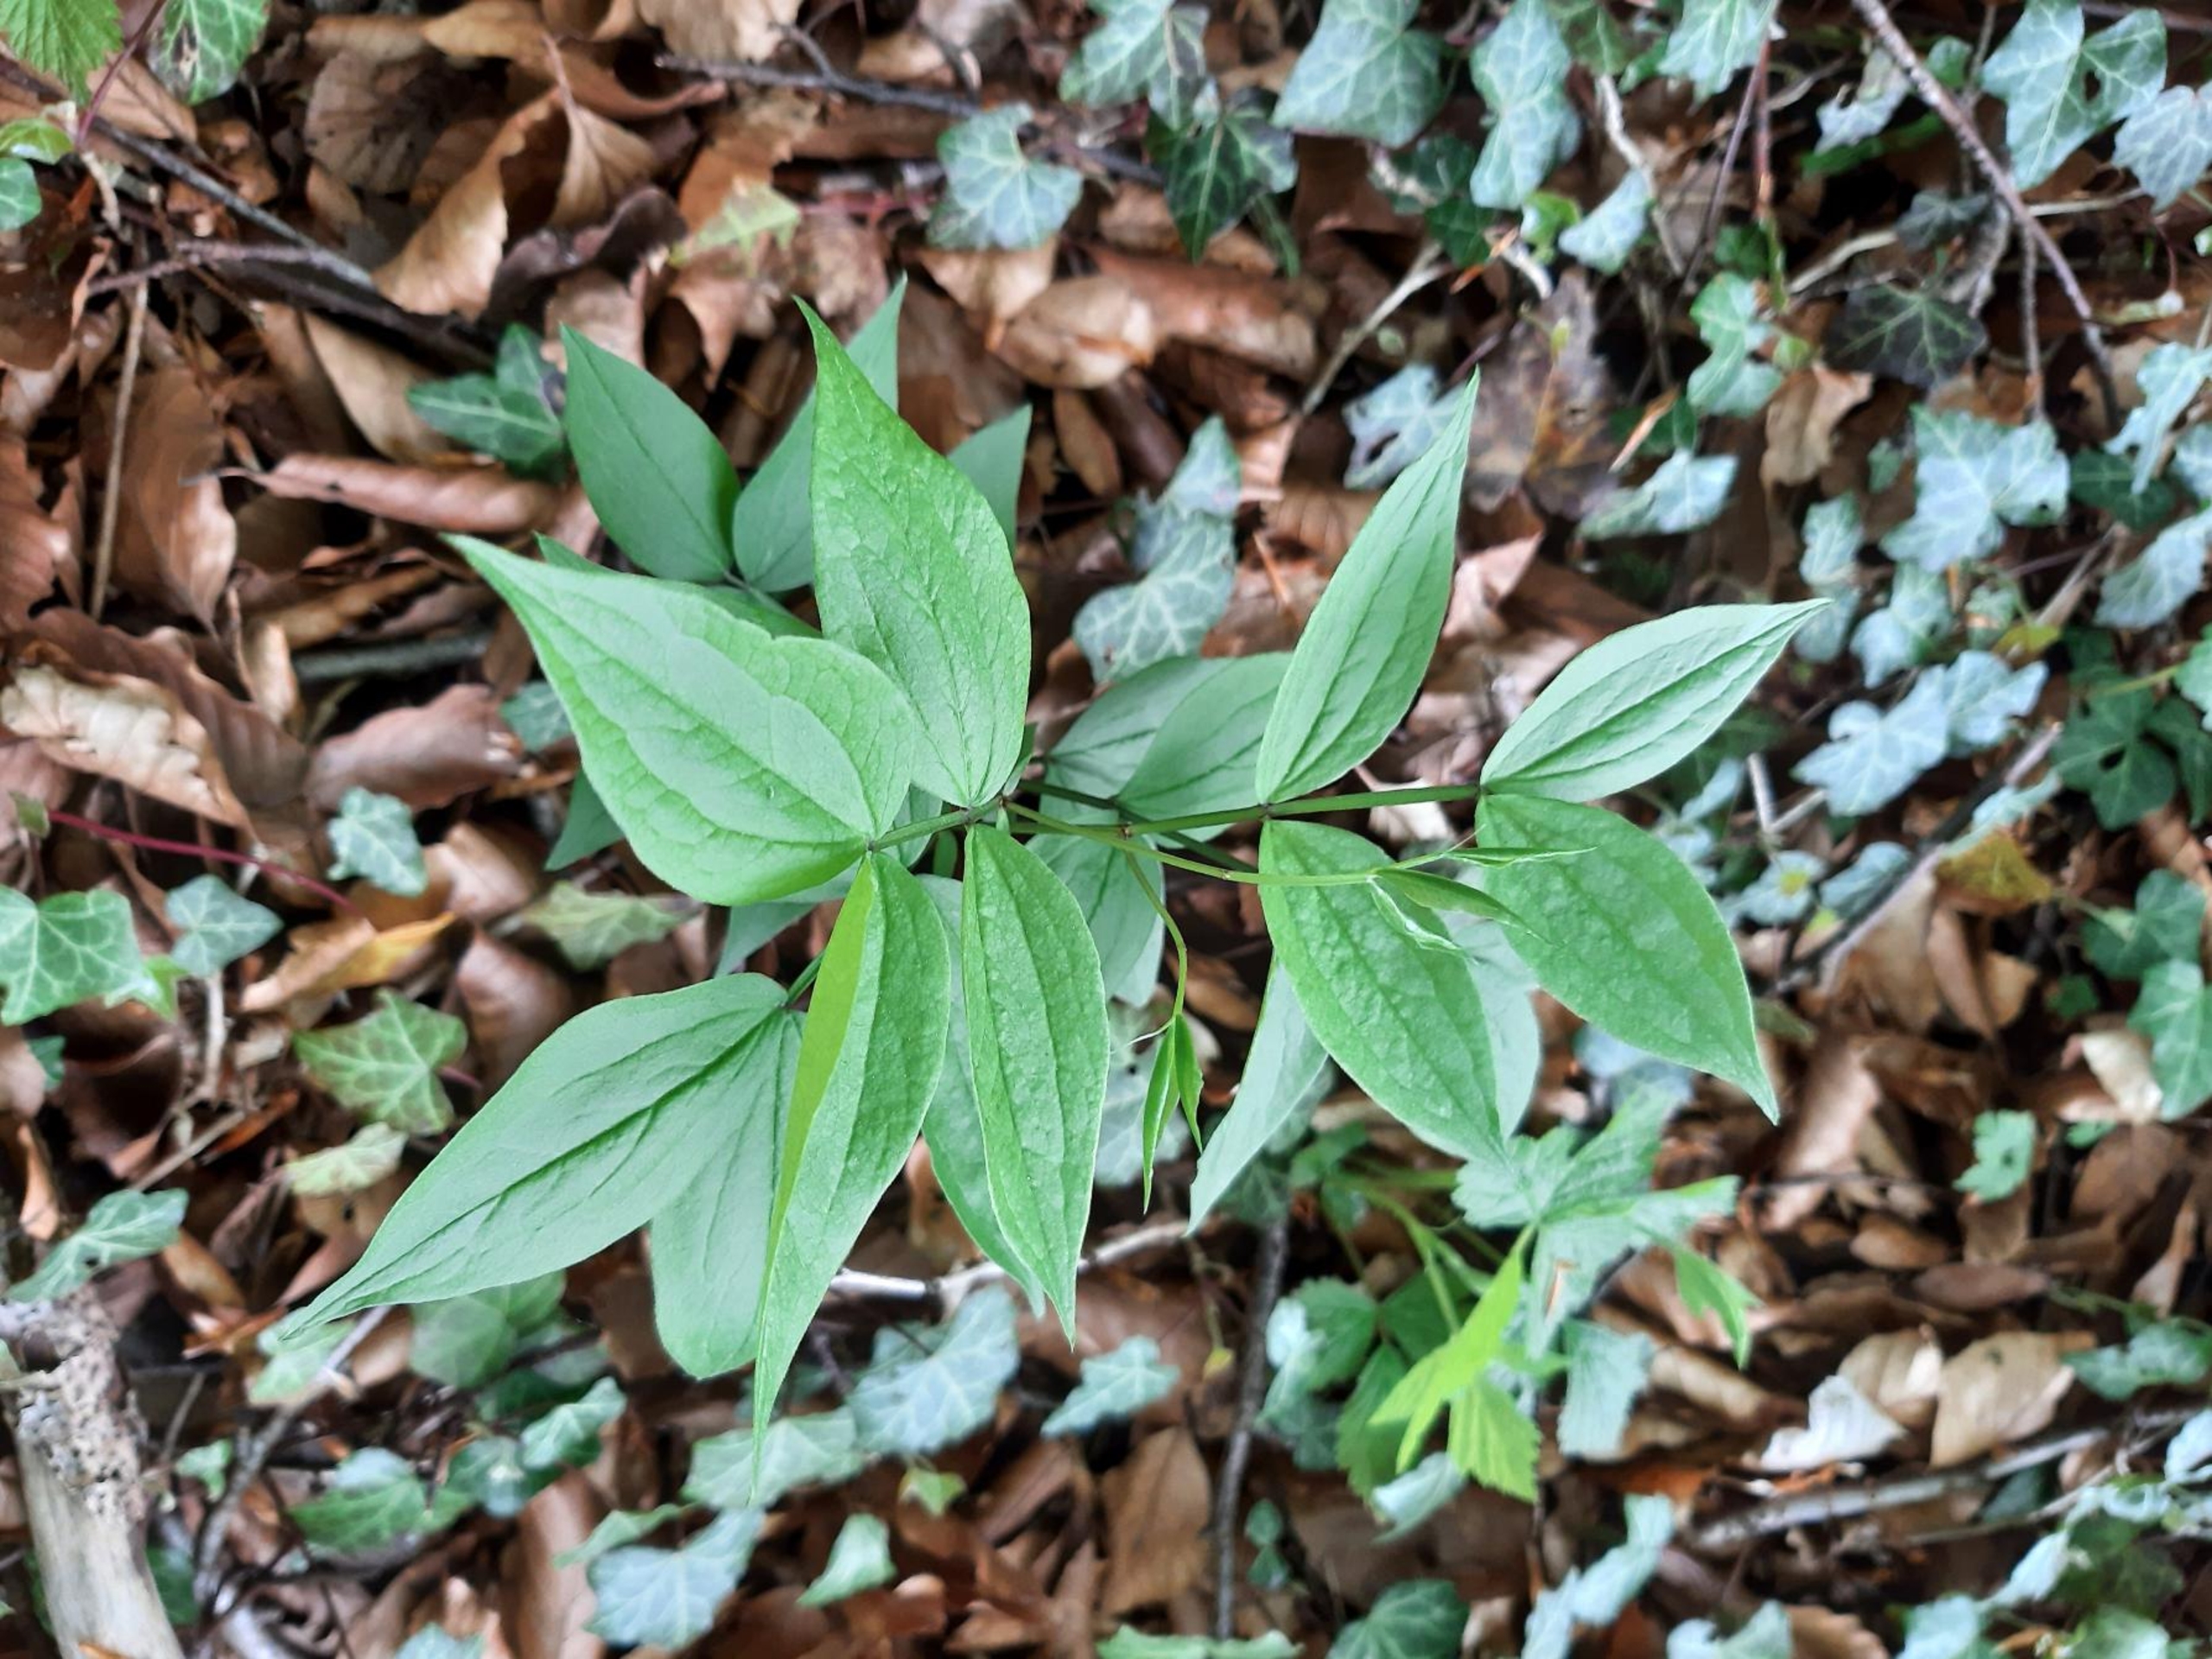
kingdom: Plantae
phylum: Tracheophyta
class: Magnoliopsida
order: Fabales
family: Fabaceae
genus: Lathyrus
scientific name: Lathyrus vernus
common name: Vår-fladbælg
